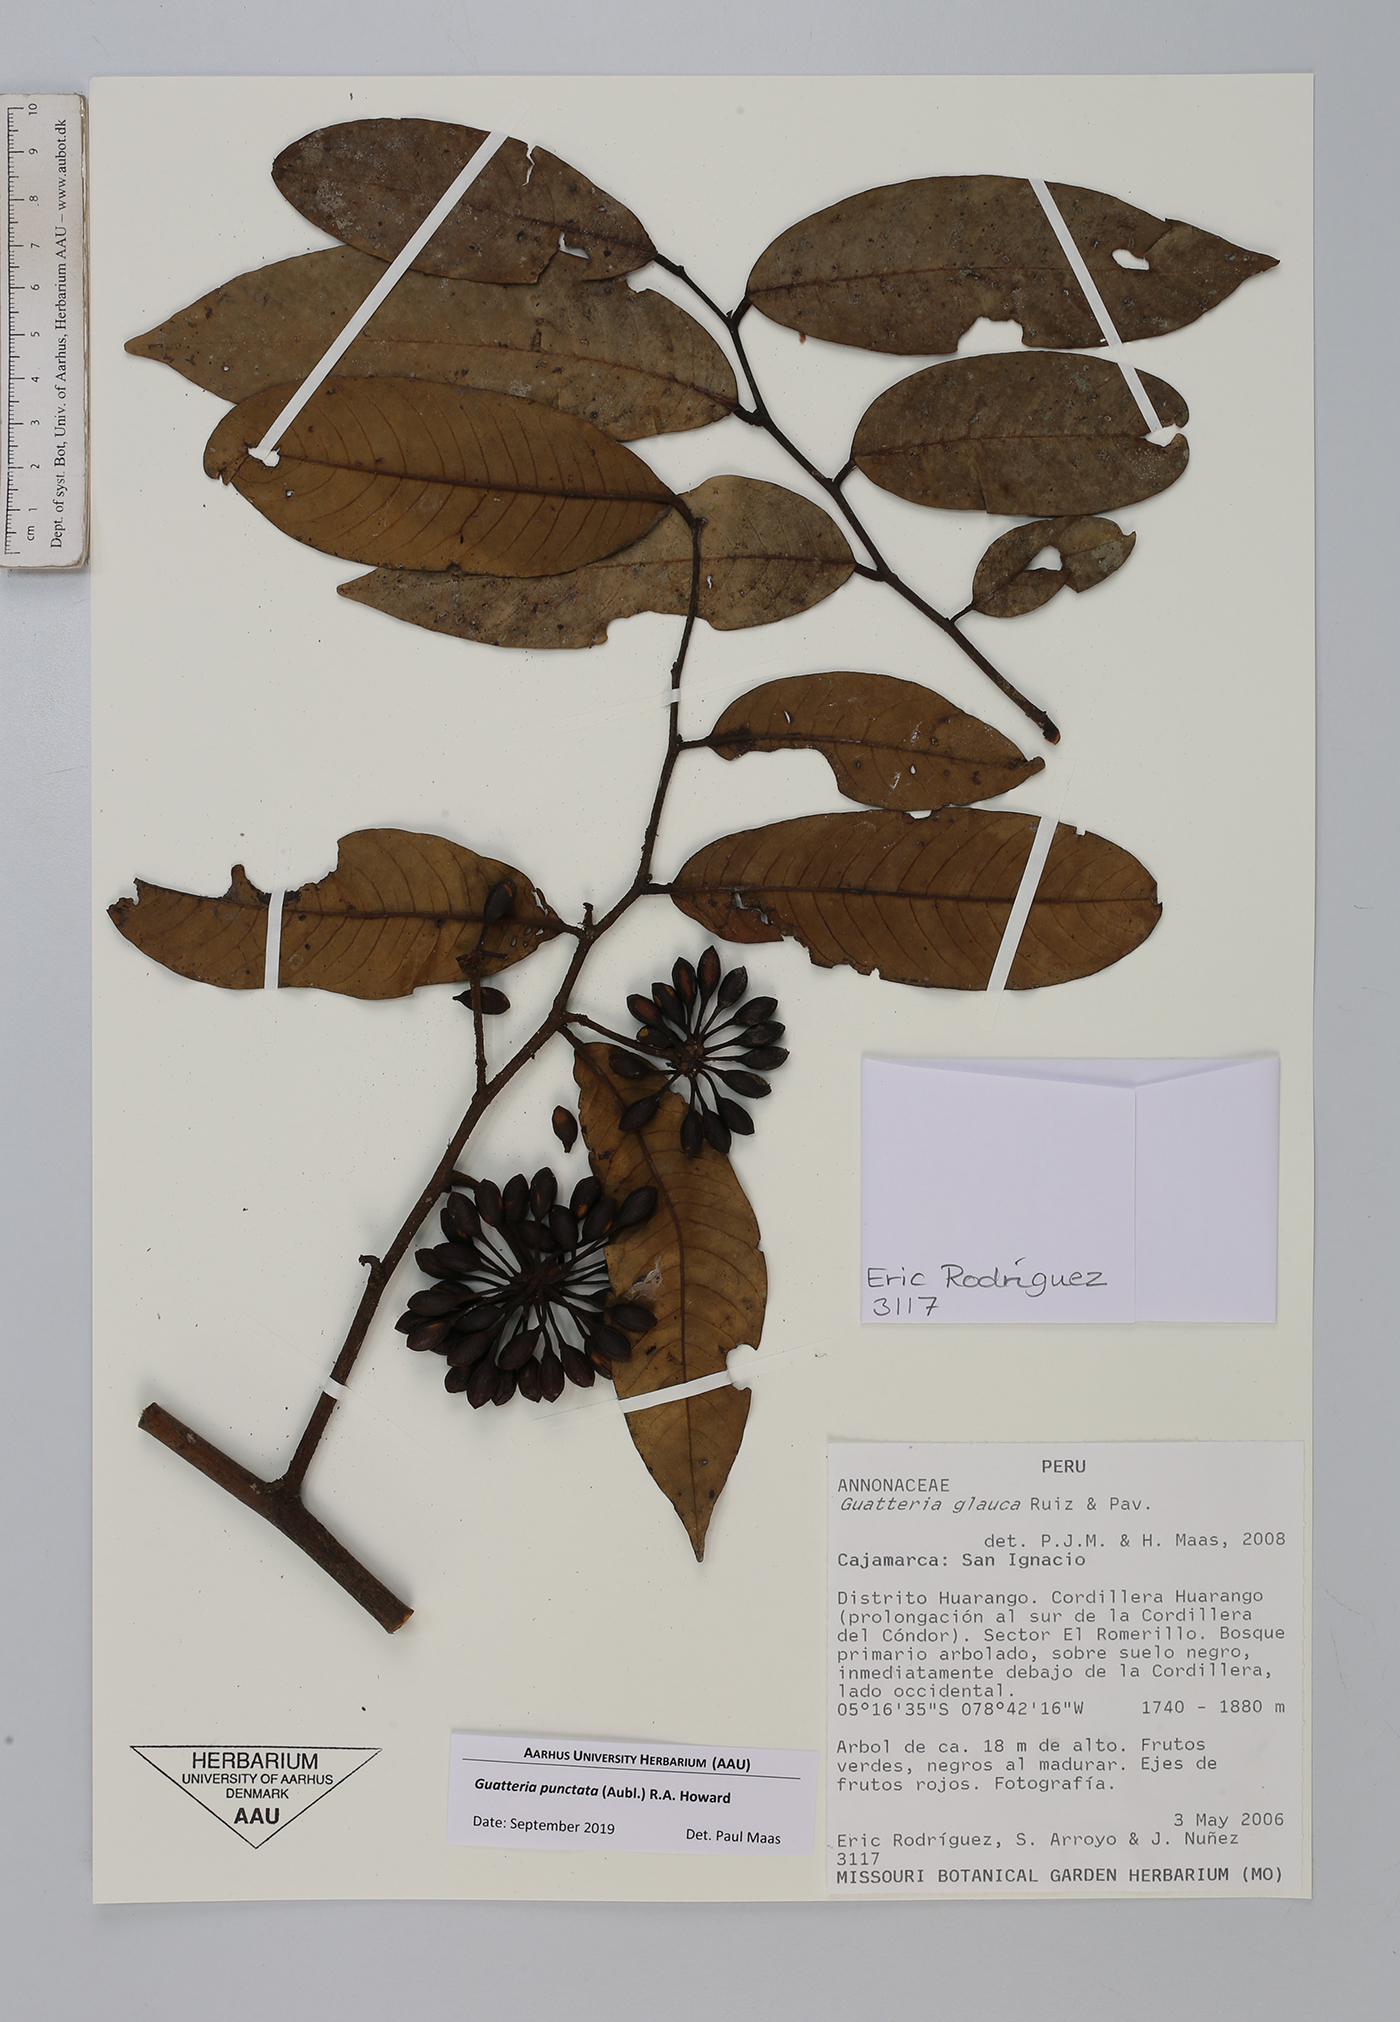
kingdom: Plantae
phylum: Tracheophyta
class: Magnoliopsida
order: Magnoliales
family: Annonaceae
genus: Guatteria
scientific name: Guatteria punctata
